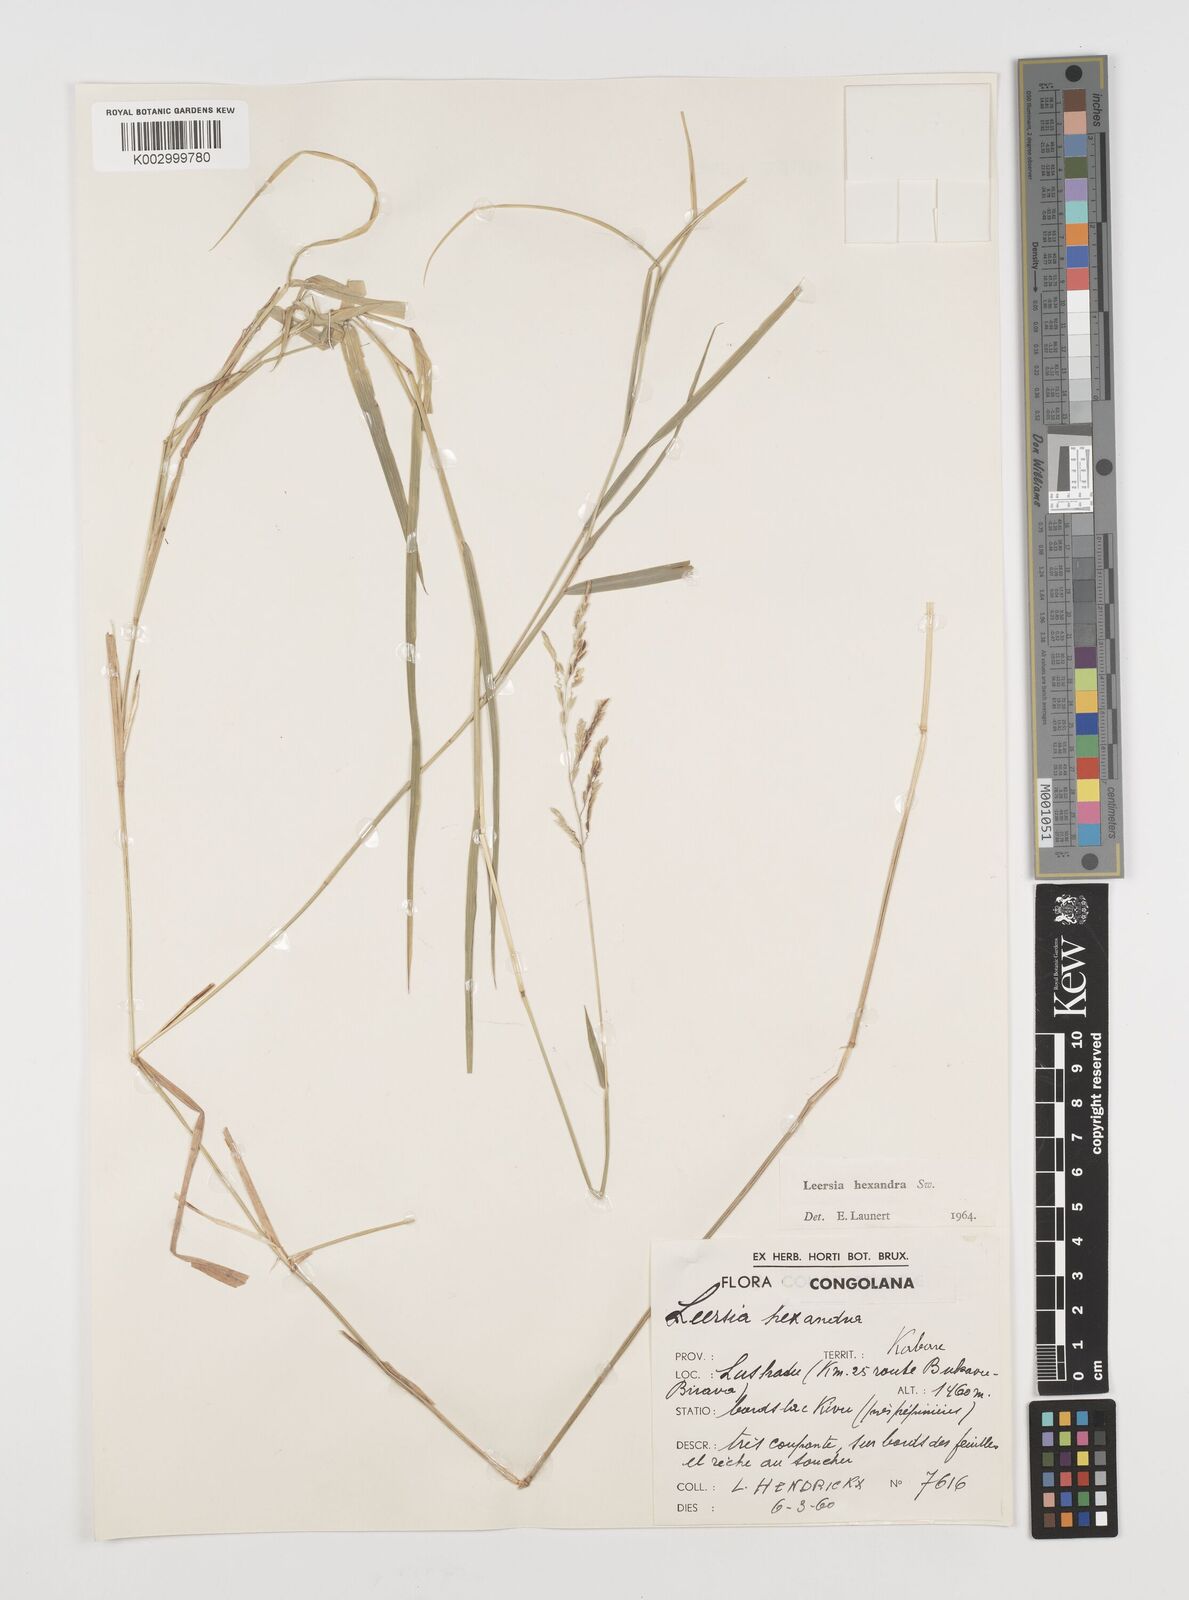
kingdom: Plantae
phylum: Tracheophyta
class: Liliopsida
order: Poales
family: Poaceae
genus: Leersia
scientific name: Leersia hexandra
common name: Southern cut grass
